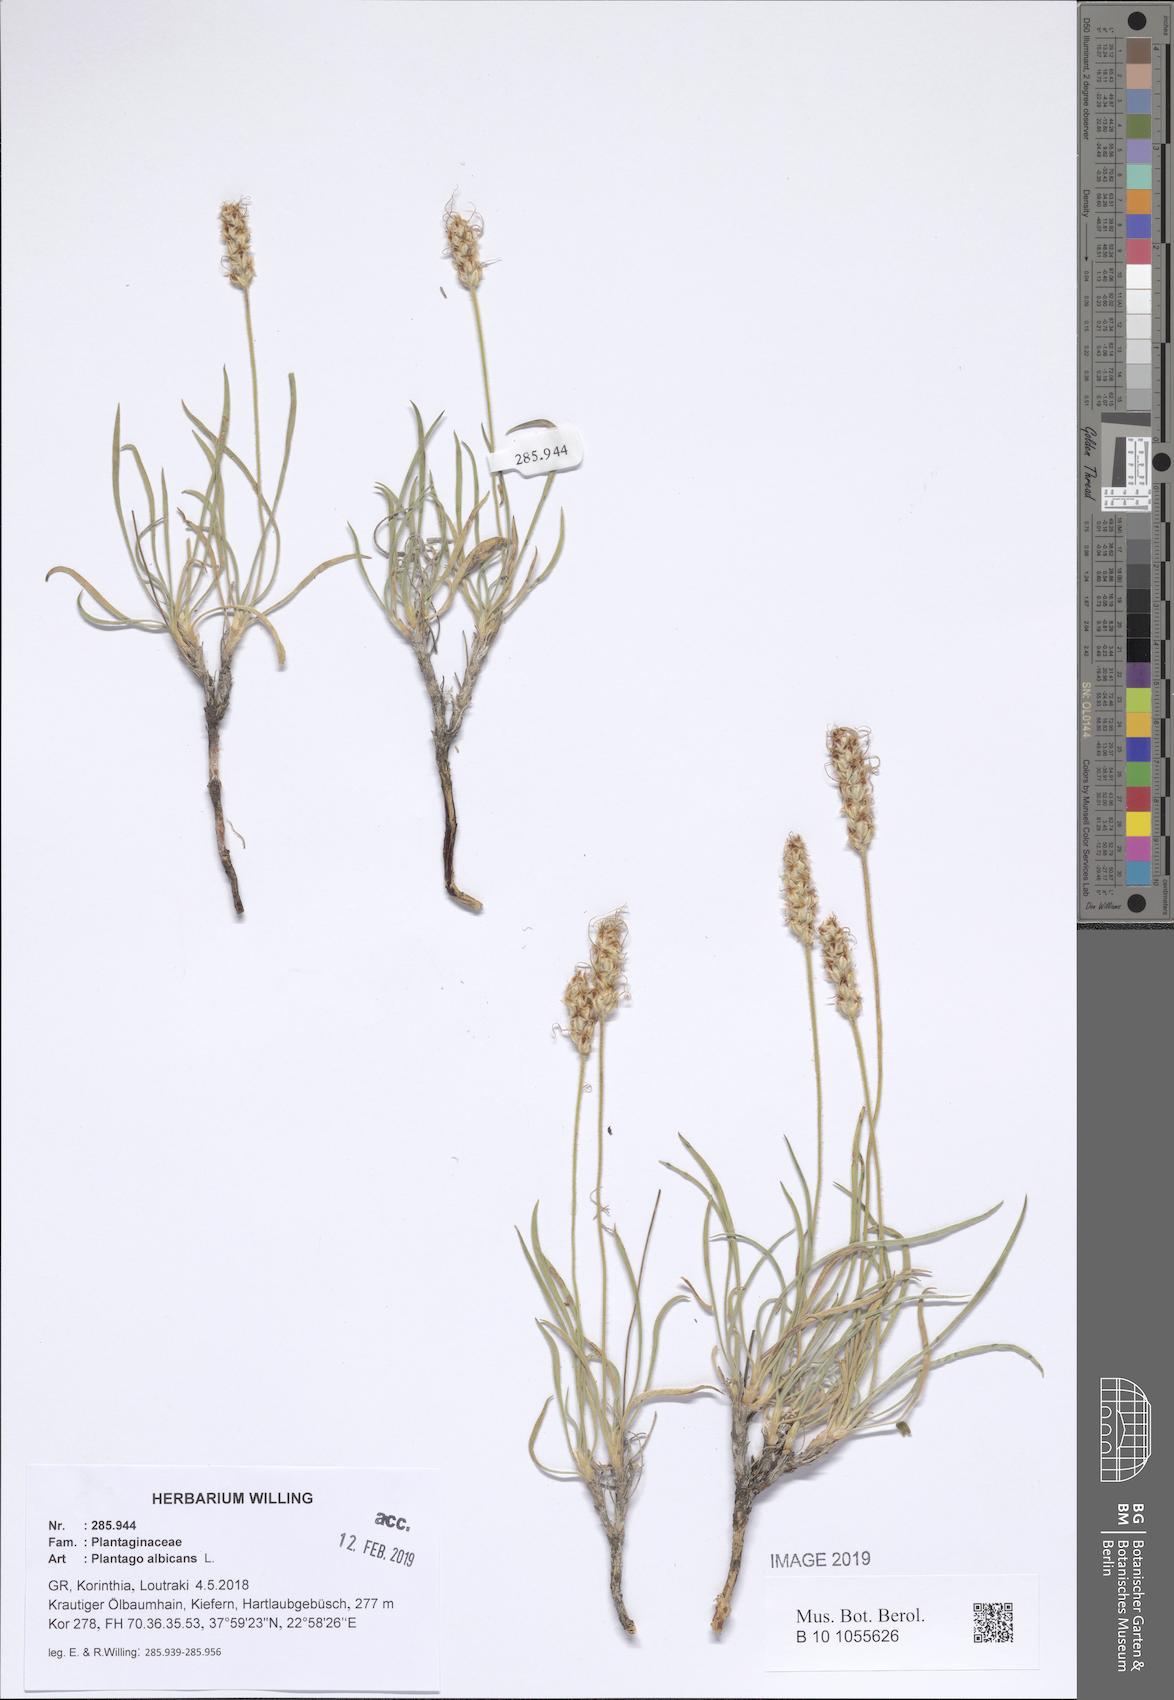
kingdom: Plantae
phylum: Tracheophyta
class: Magnoliopsida
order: Lamiales
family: Plantaginaceae
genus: Plantago
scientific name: Plantago albicans
